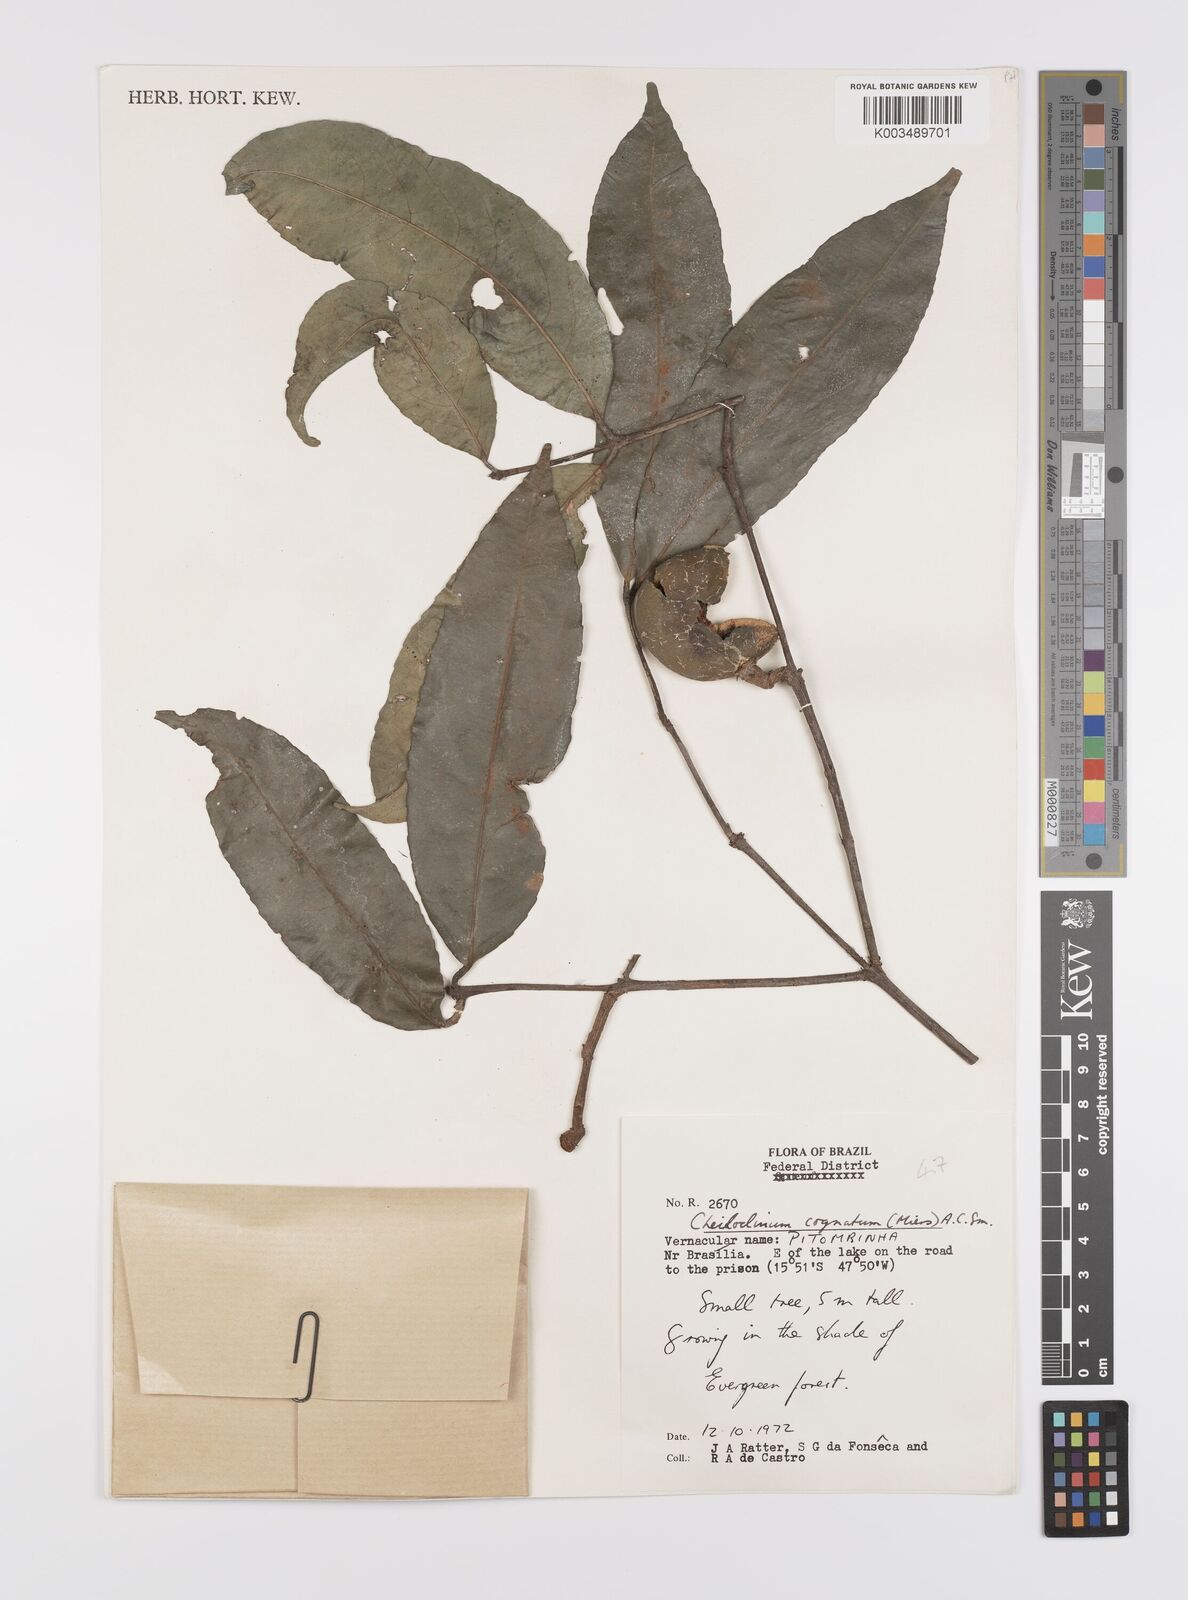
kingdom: Plantae
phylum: Tracheophyta
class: Magnoliopsida
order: Celastrales
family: Celastraceae
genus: Cheiloclinium
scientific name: Cheiloclinium cognatum
